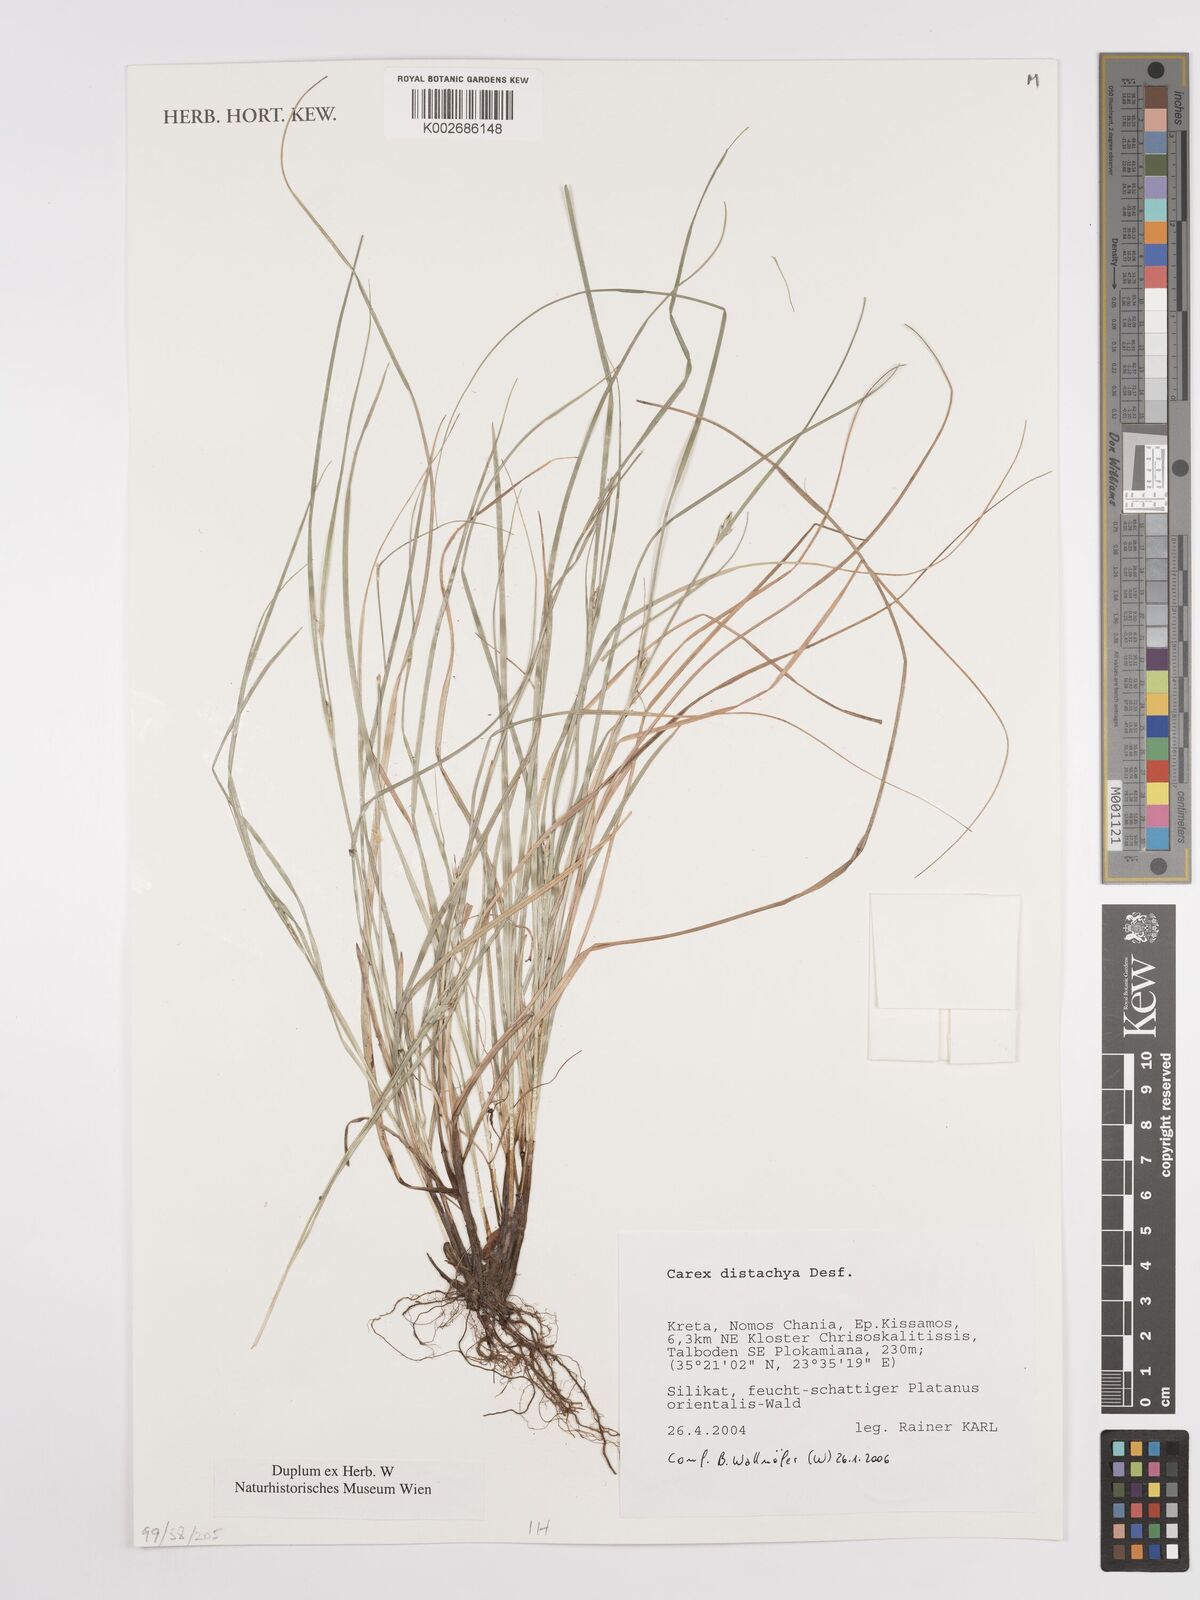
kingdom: Plantae
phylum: Tracheophyta
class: Liliopsida
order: Poales
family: Cyperaceae
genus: Carex
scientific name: Carex distachya
